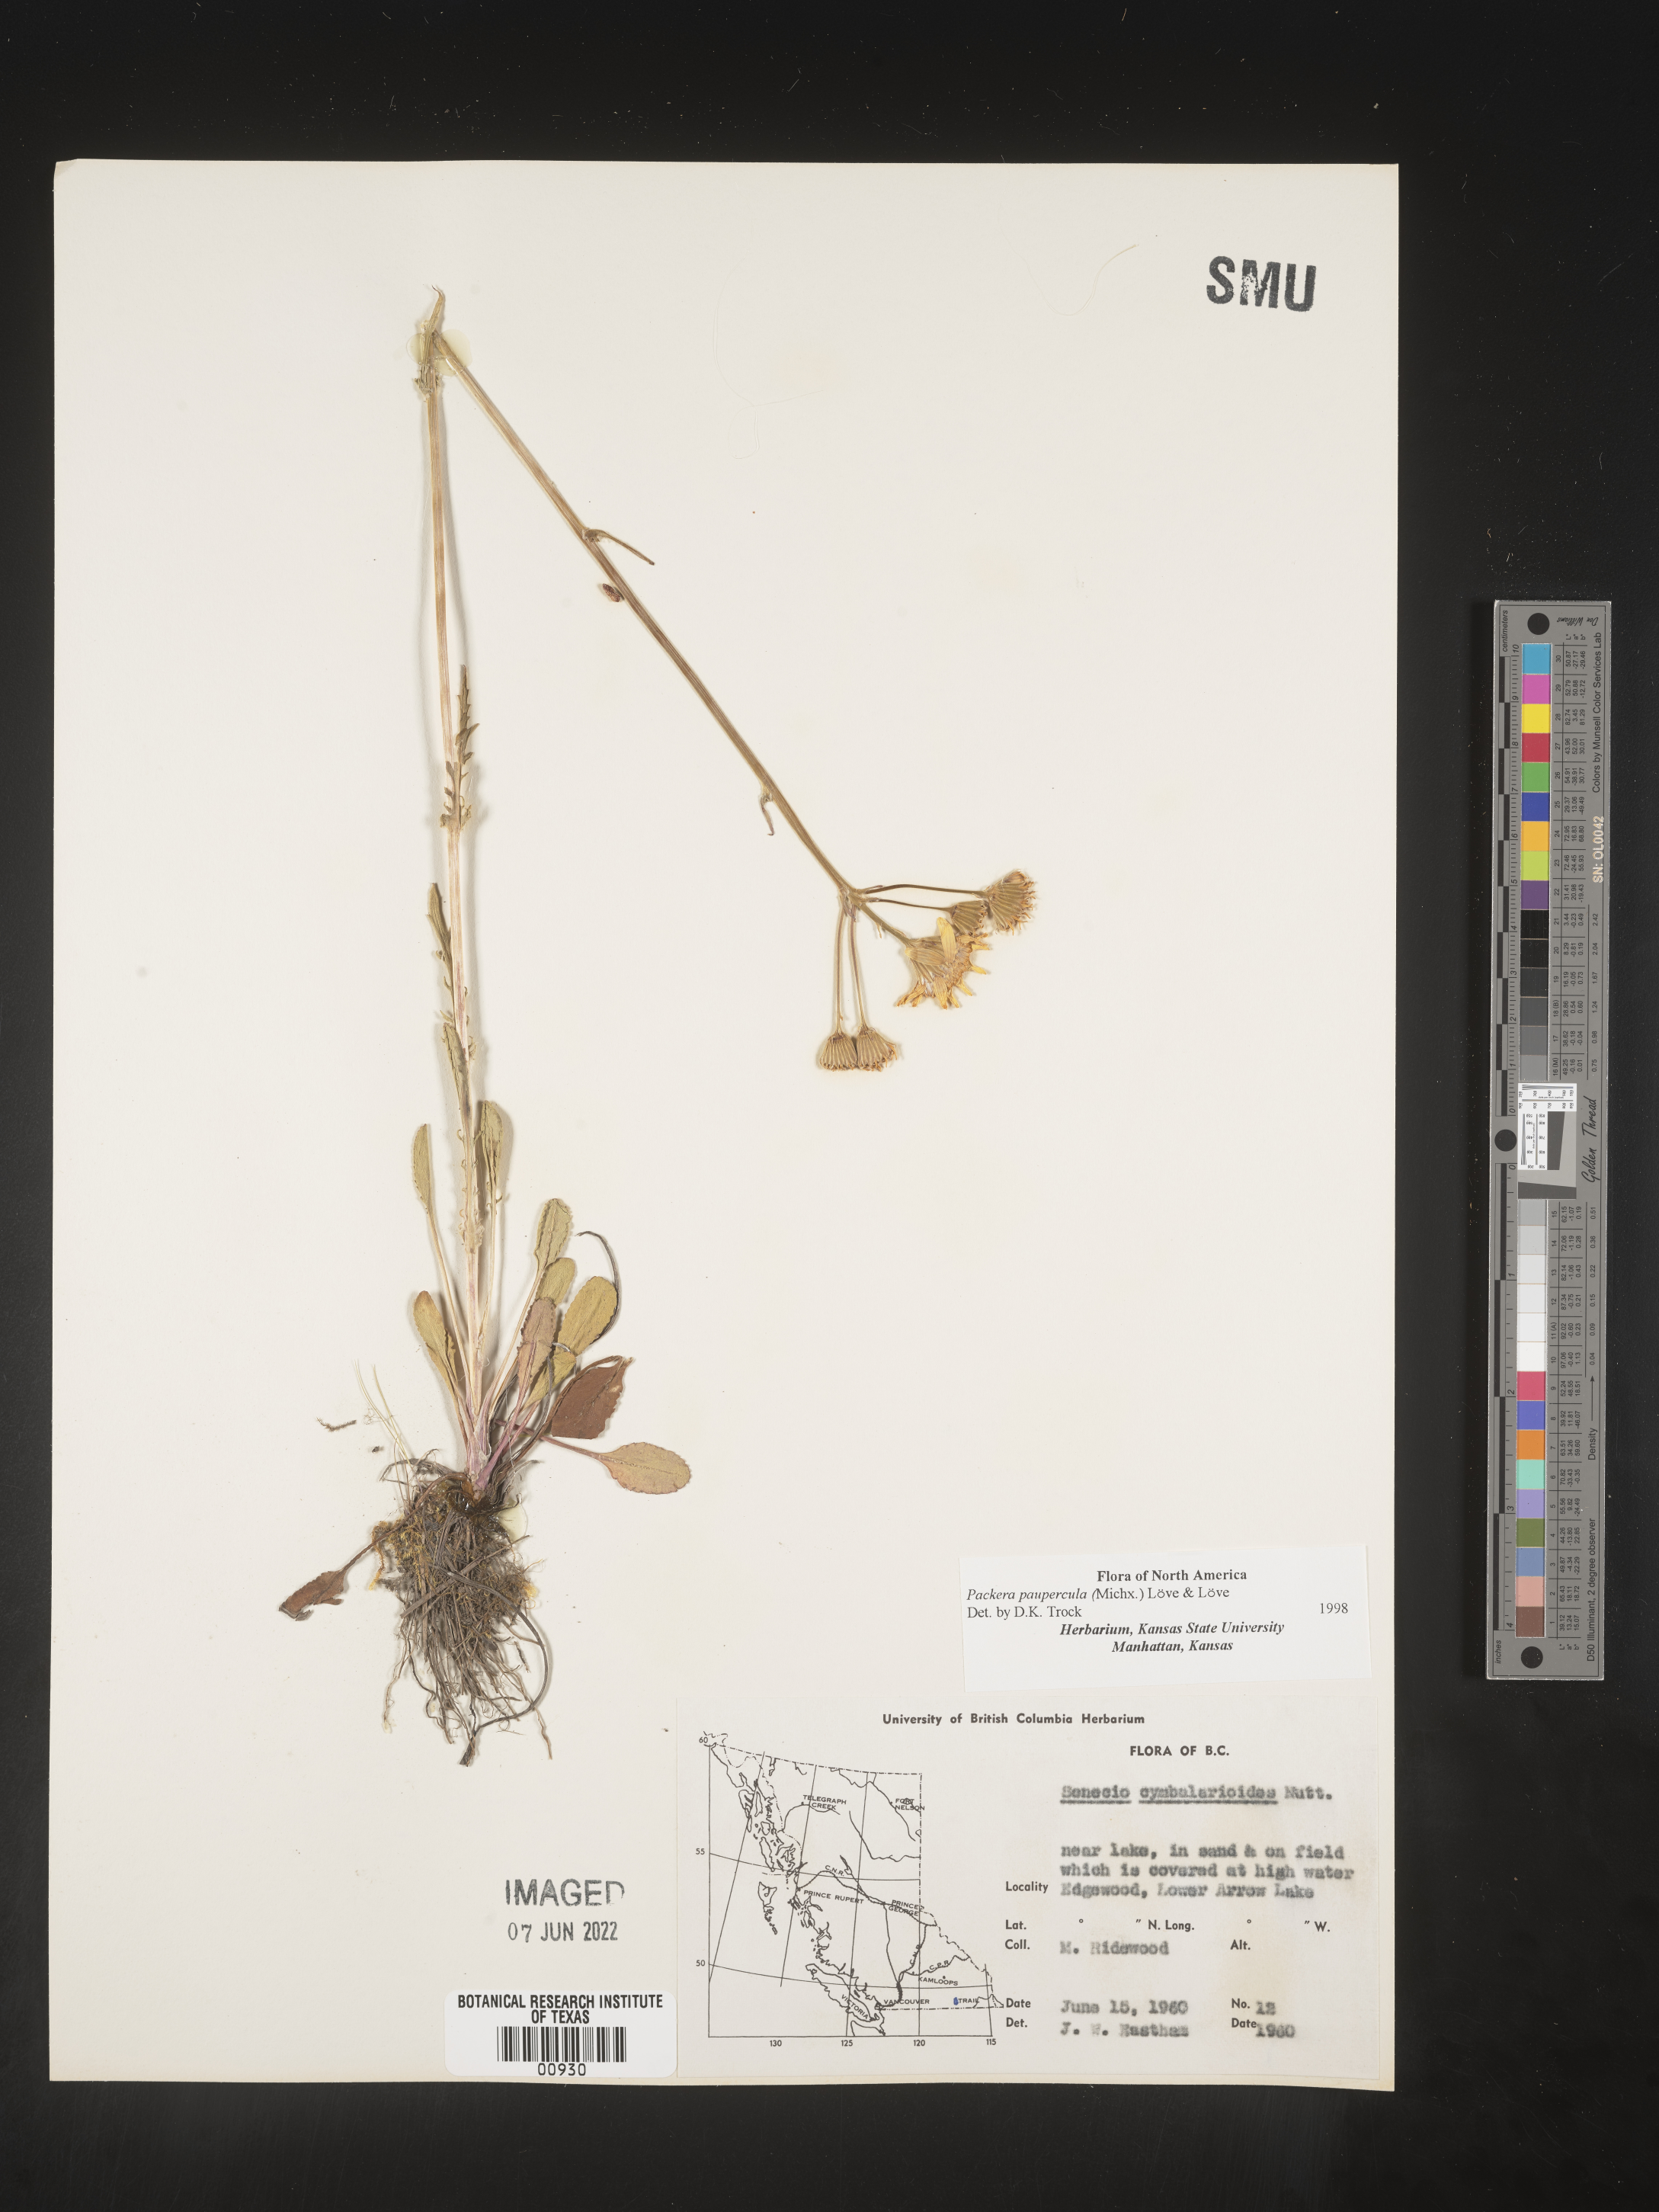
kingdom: Plantae
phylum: Tracheophyta
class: Magnoliopsida
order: Asterales
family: Asteraceae
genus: Packera
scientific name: Packera paupercula
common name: Balsam groundsel
